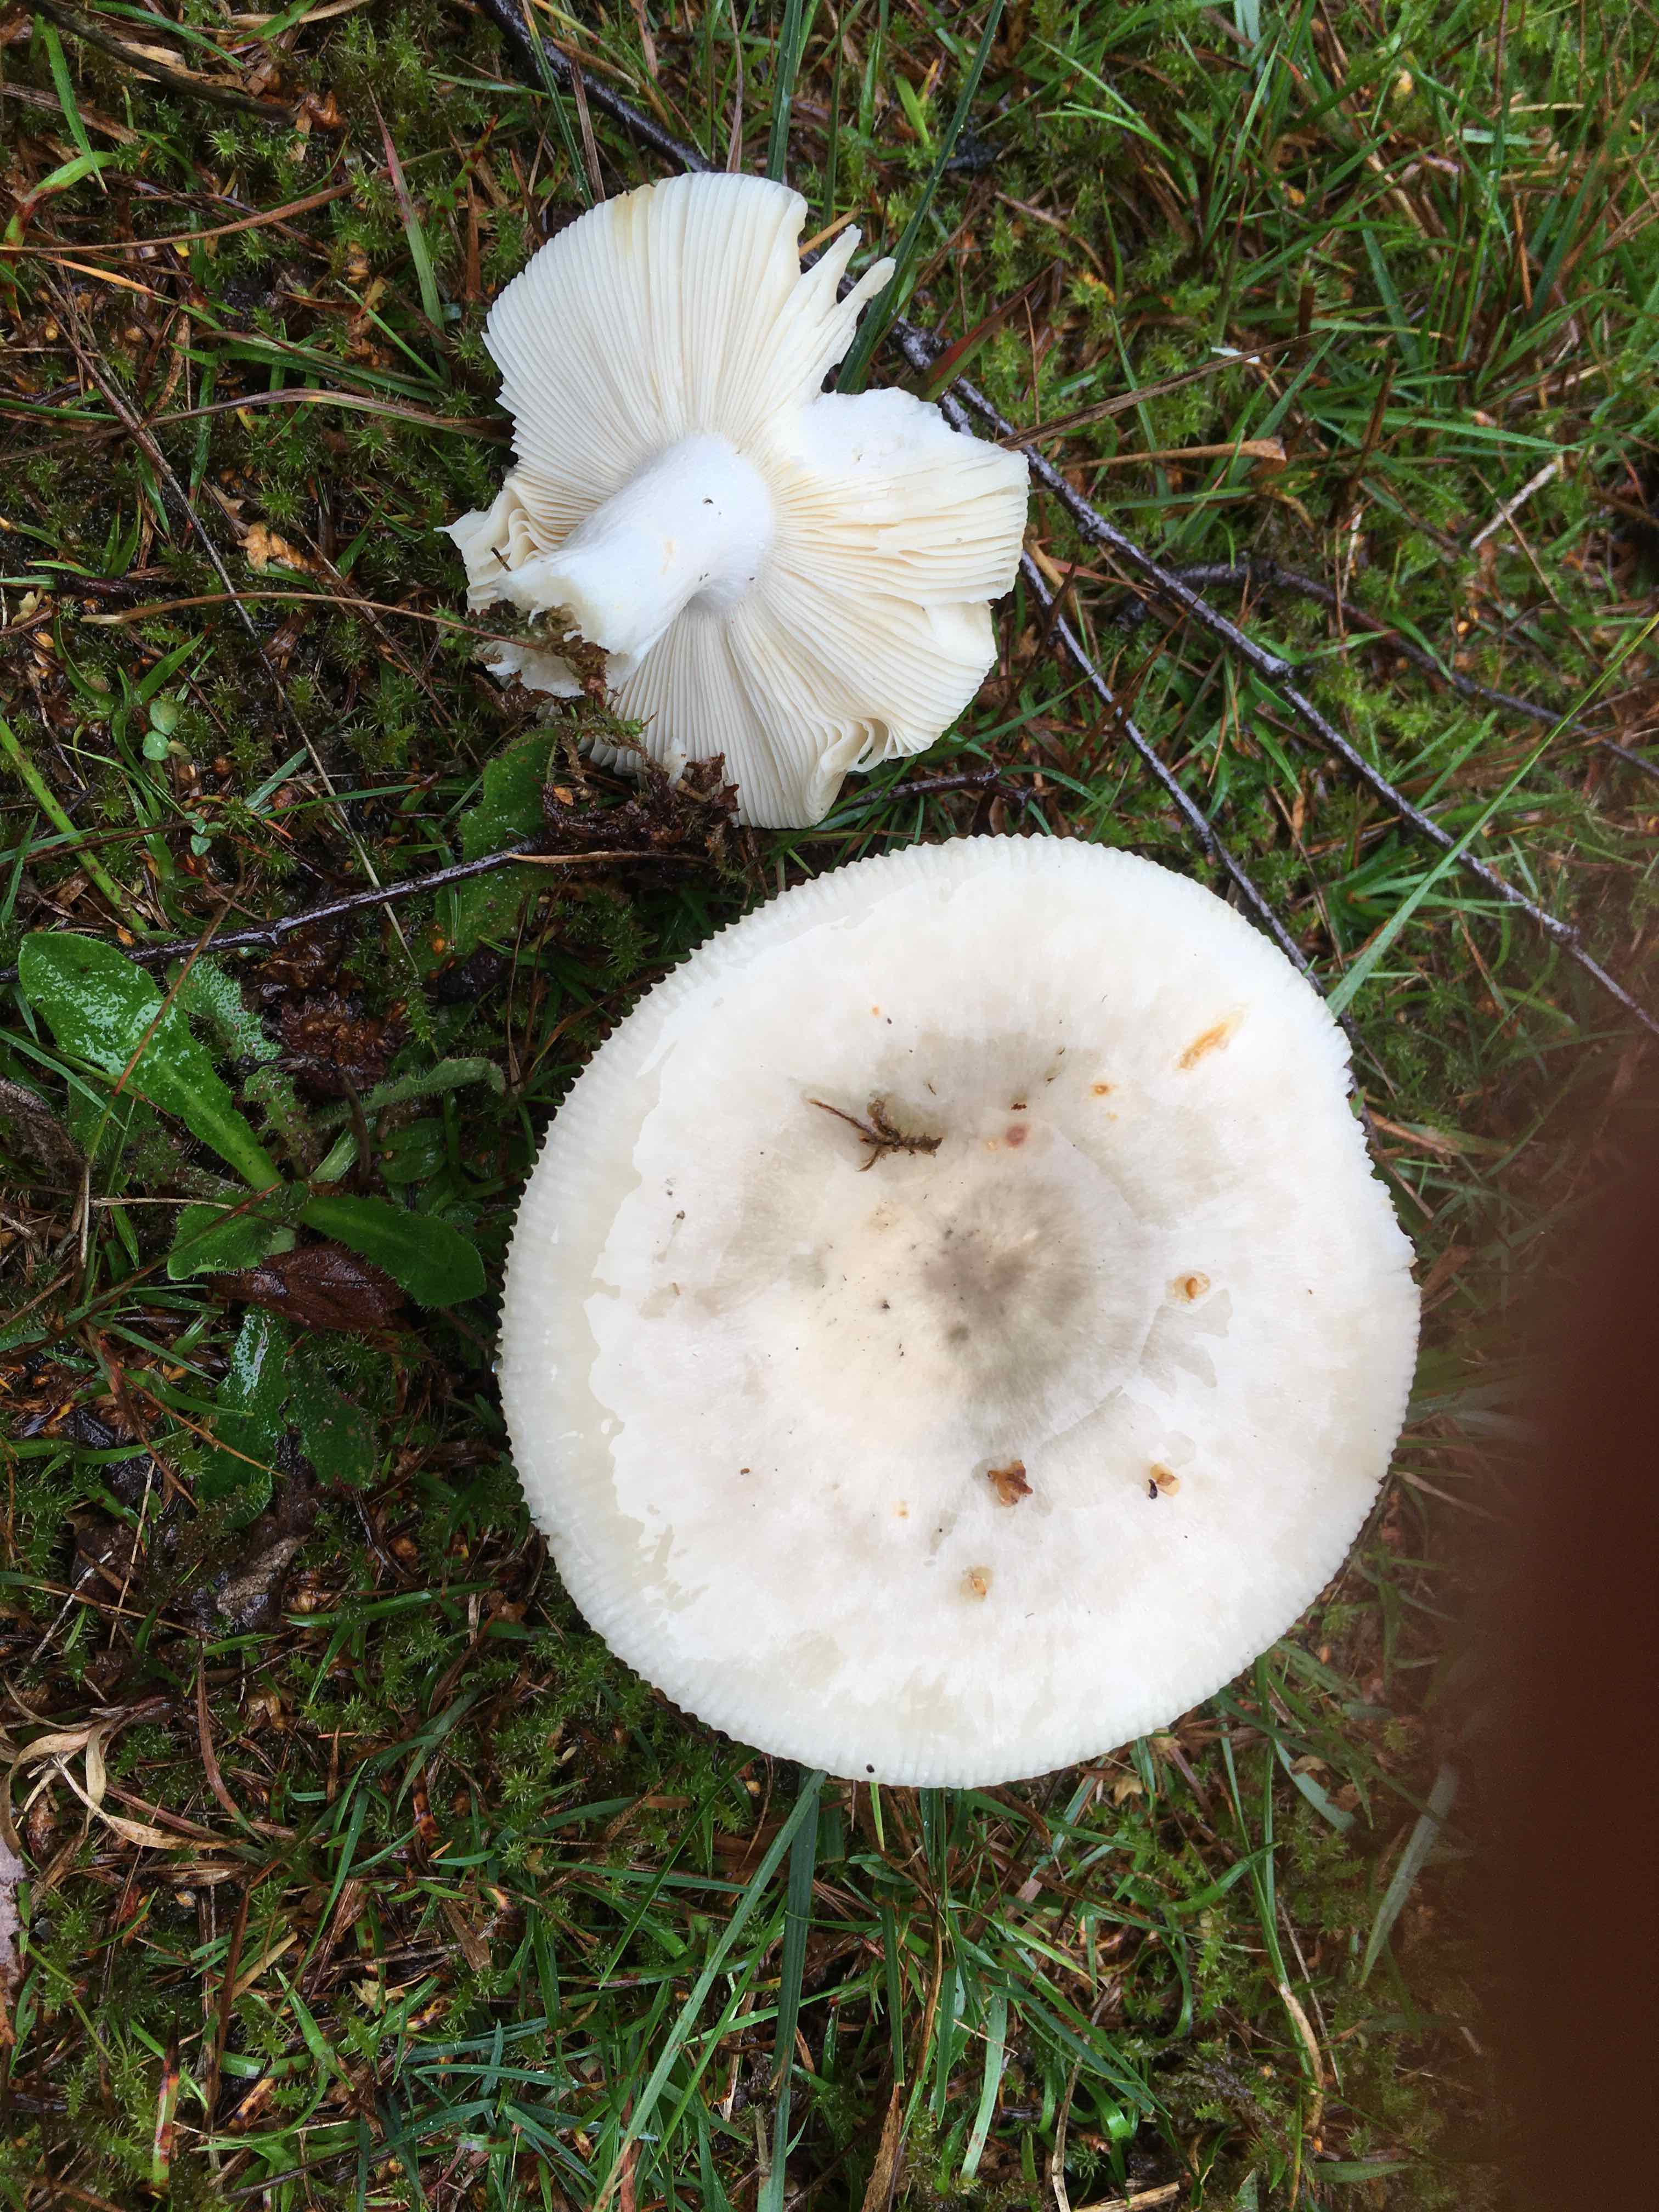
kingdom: Fungi
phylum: Basidiomycota
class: Agaricomycetes
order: Russulales
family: Russulaceae
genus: Russula
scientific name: Russula aeruginea
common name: græsgrøn skørhat
